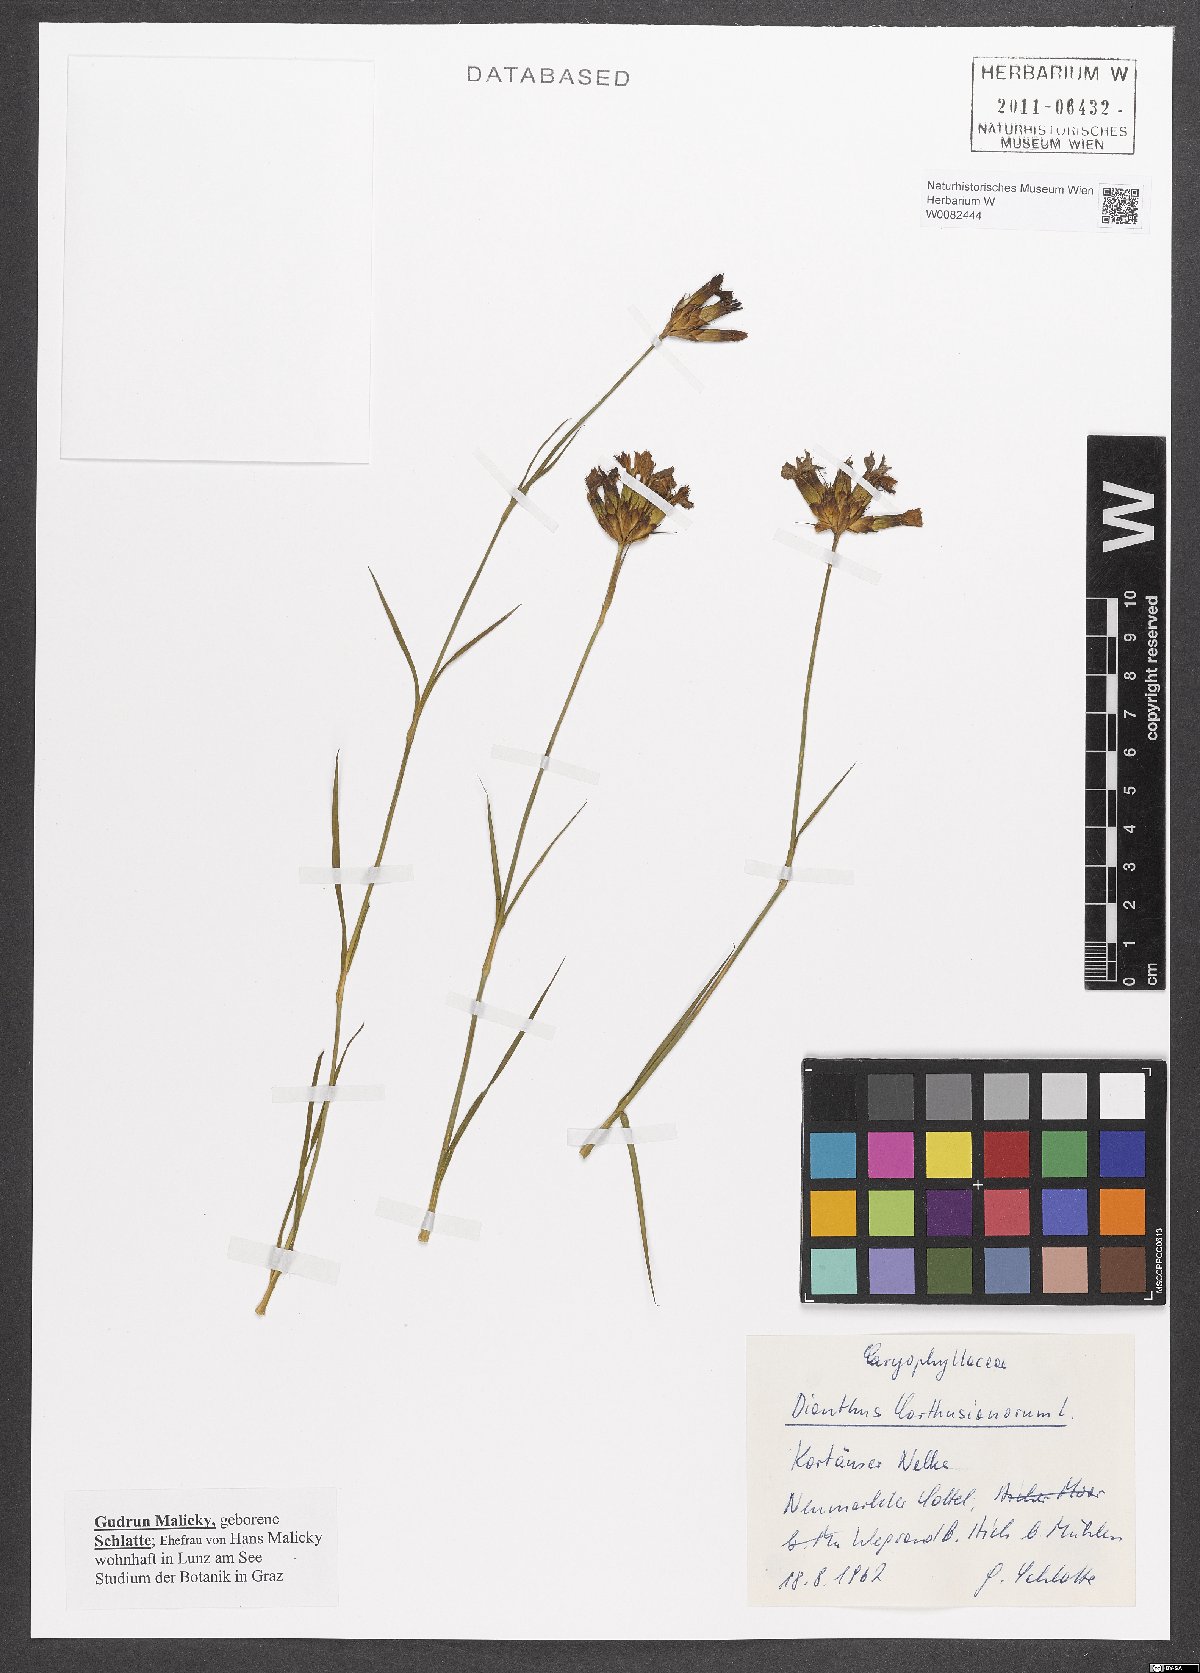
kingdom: Plantae
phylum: Tracheophyta
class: Magnoliopsida
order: Caryophyllales
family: Caryophyllaceae
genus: Dianthus
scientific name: Dianthus carthusianorum
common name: Carthusian pink
